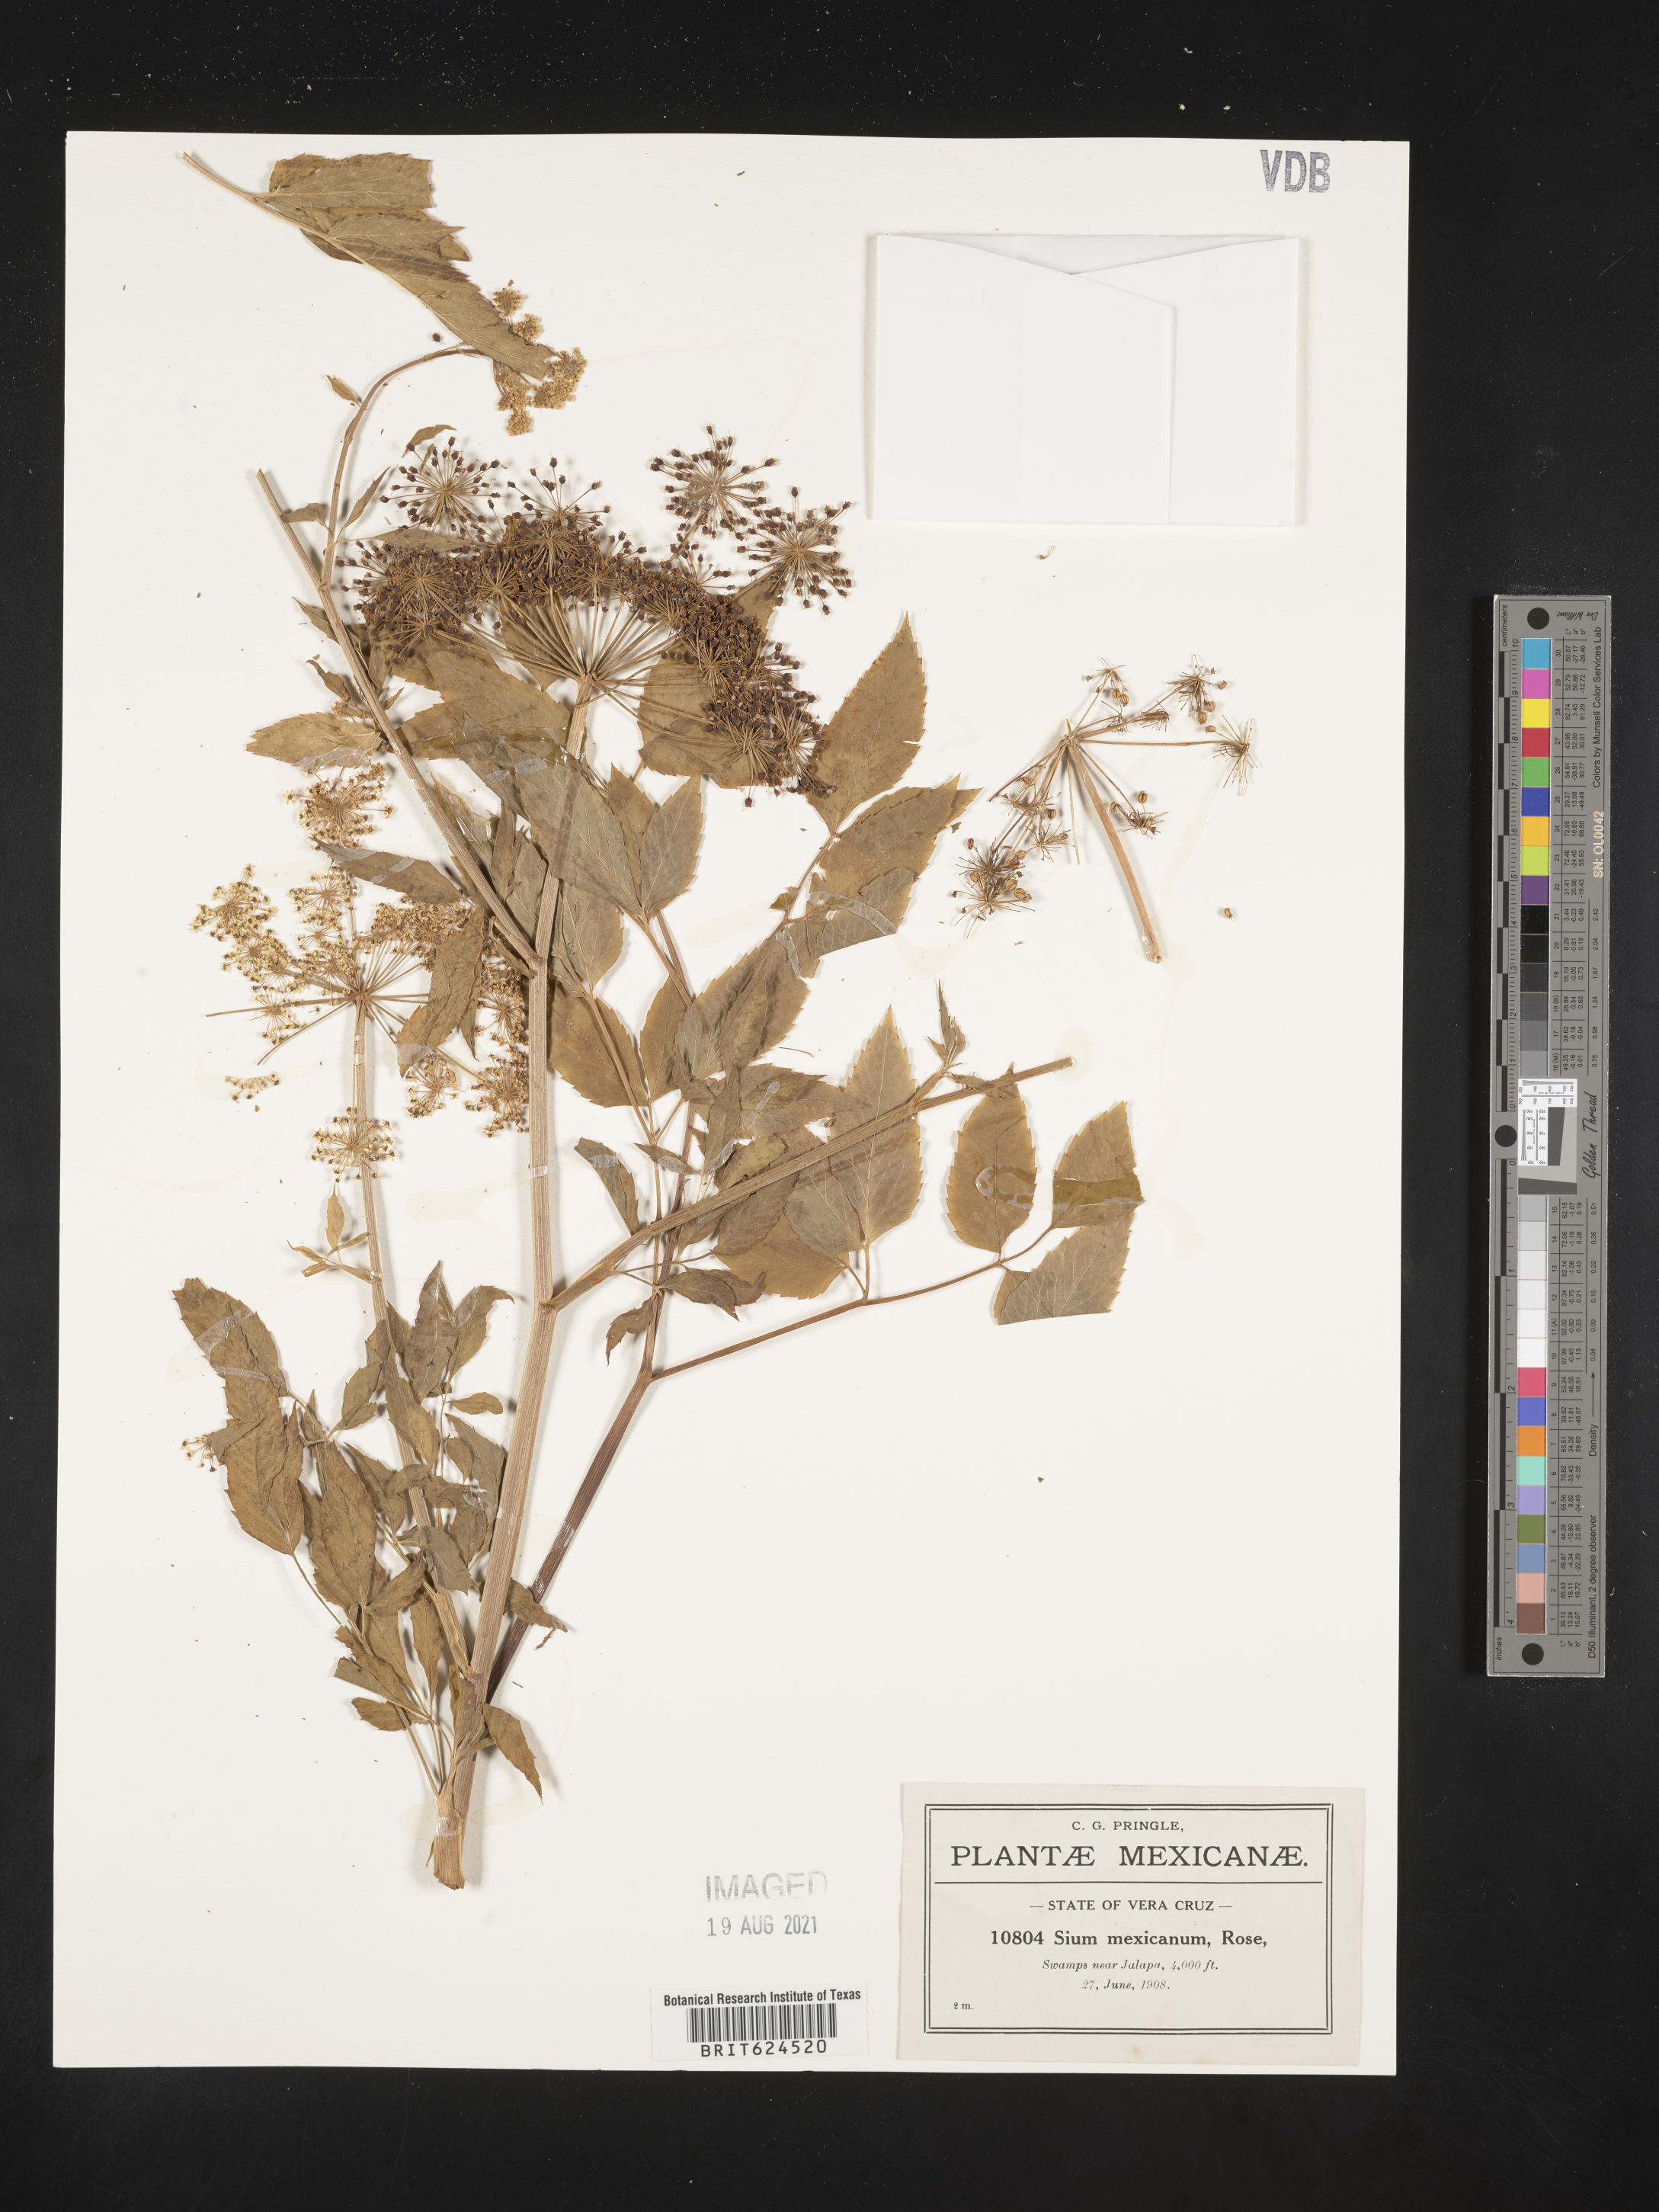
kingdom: Plantae
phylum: Tracheophyta
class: Magnoliopsida
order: Apiales
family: Apiaceae
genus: Sium
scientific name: Sium
